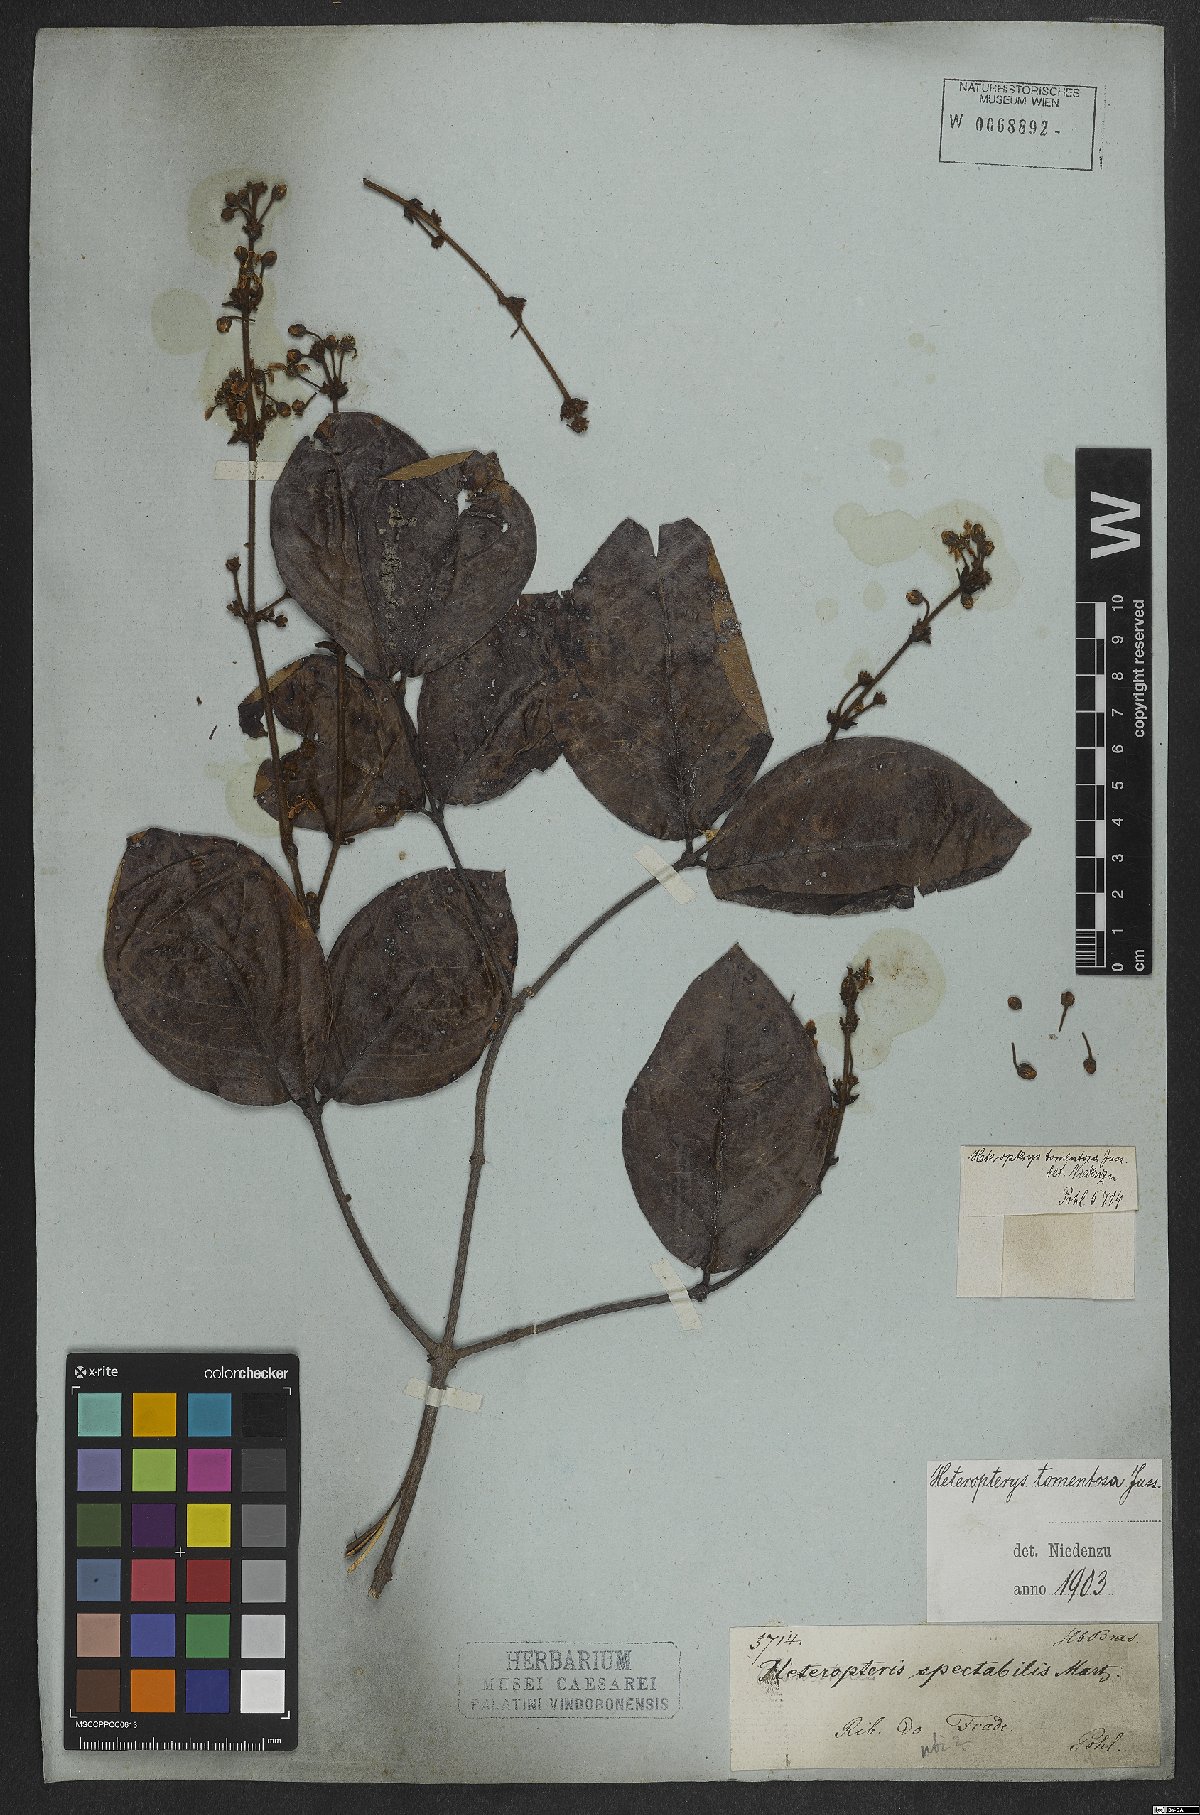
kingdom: Plantae
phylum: Tracheophyta
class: Magnoliopsida
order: Malpighiales
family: Malpighiaceae
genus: Heteropterys
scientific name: Heteropterys tomentosa
